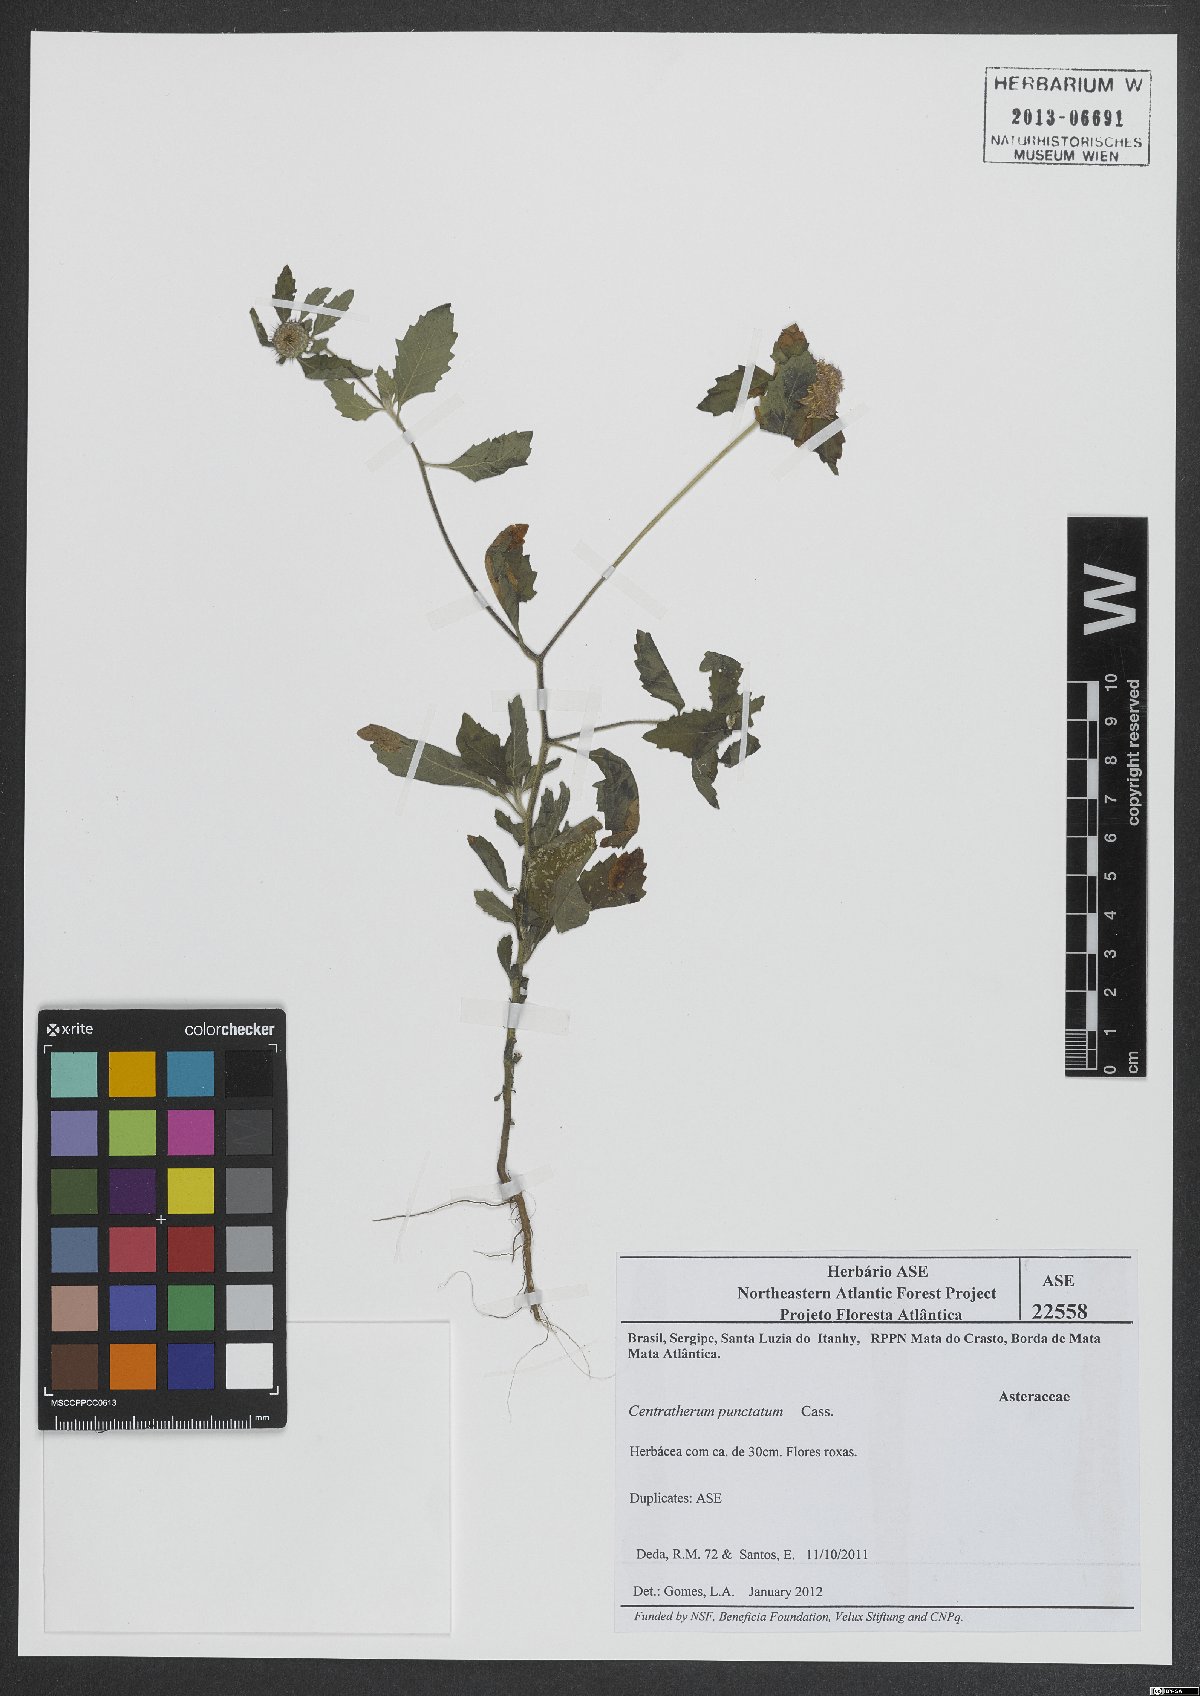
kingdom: Plantae
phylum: Tracheophyta
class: Magnoliopsida
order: Asterales
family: Asteraceae
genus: Centratherum
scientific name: Centratherum punctatum
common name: Larkdaisy
